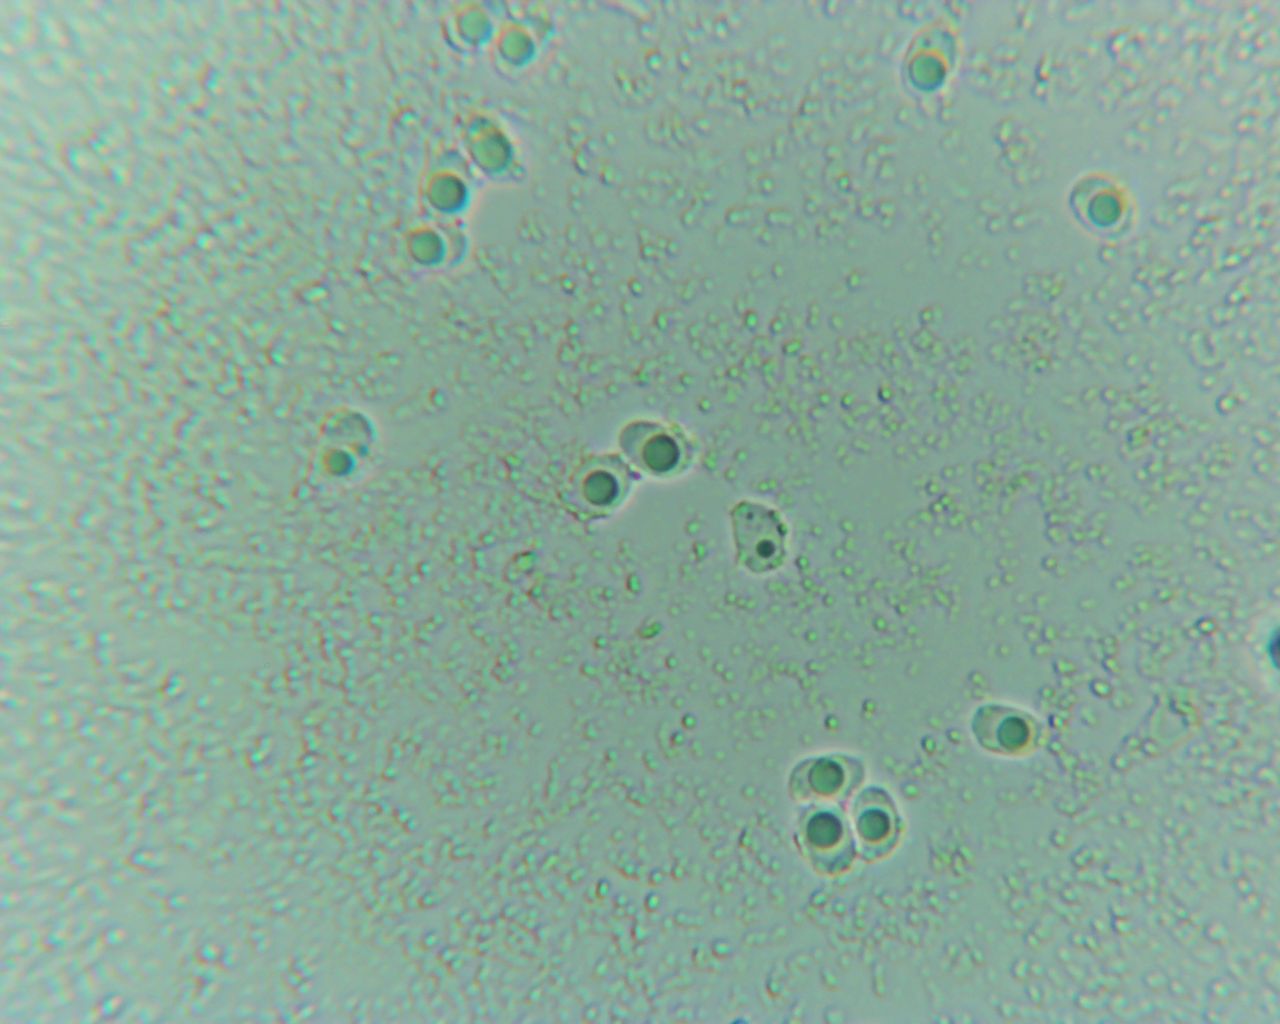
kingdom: Fungi
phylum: Basidiomycota
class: Agaricomycetes
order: Hymenochaetales
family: Schizoporaceae
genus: Xylodon
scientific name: Xylodon subtropicus
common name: labyrint-tandsvamp
